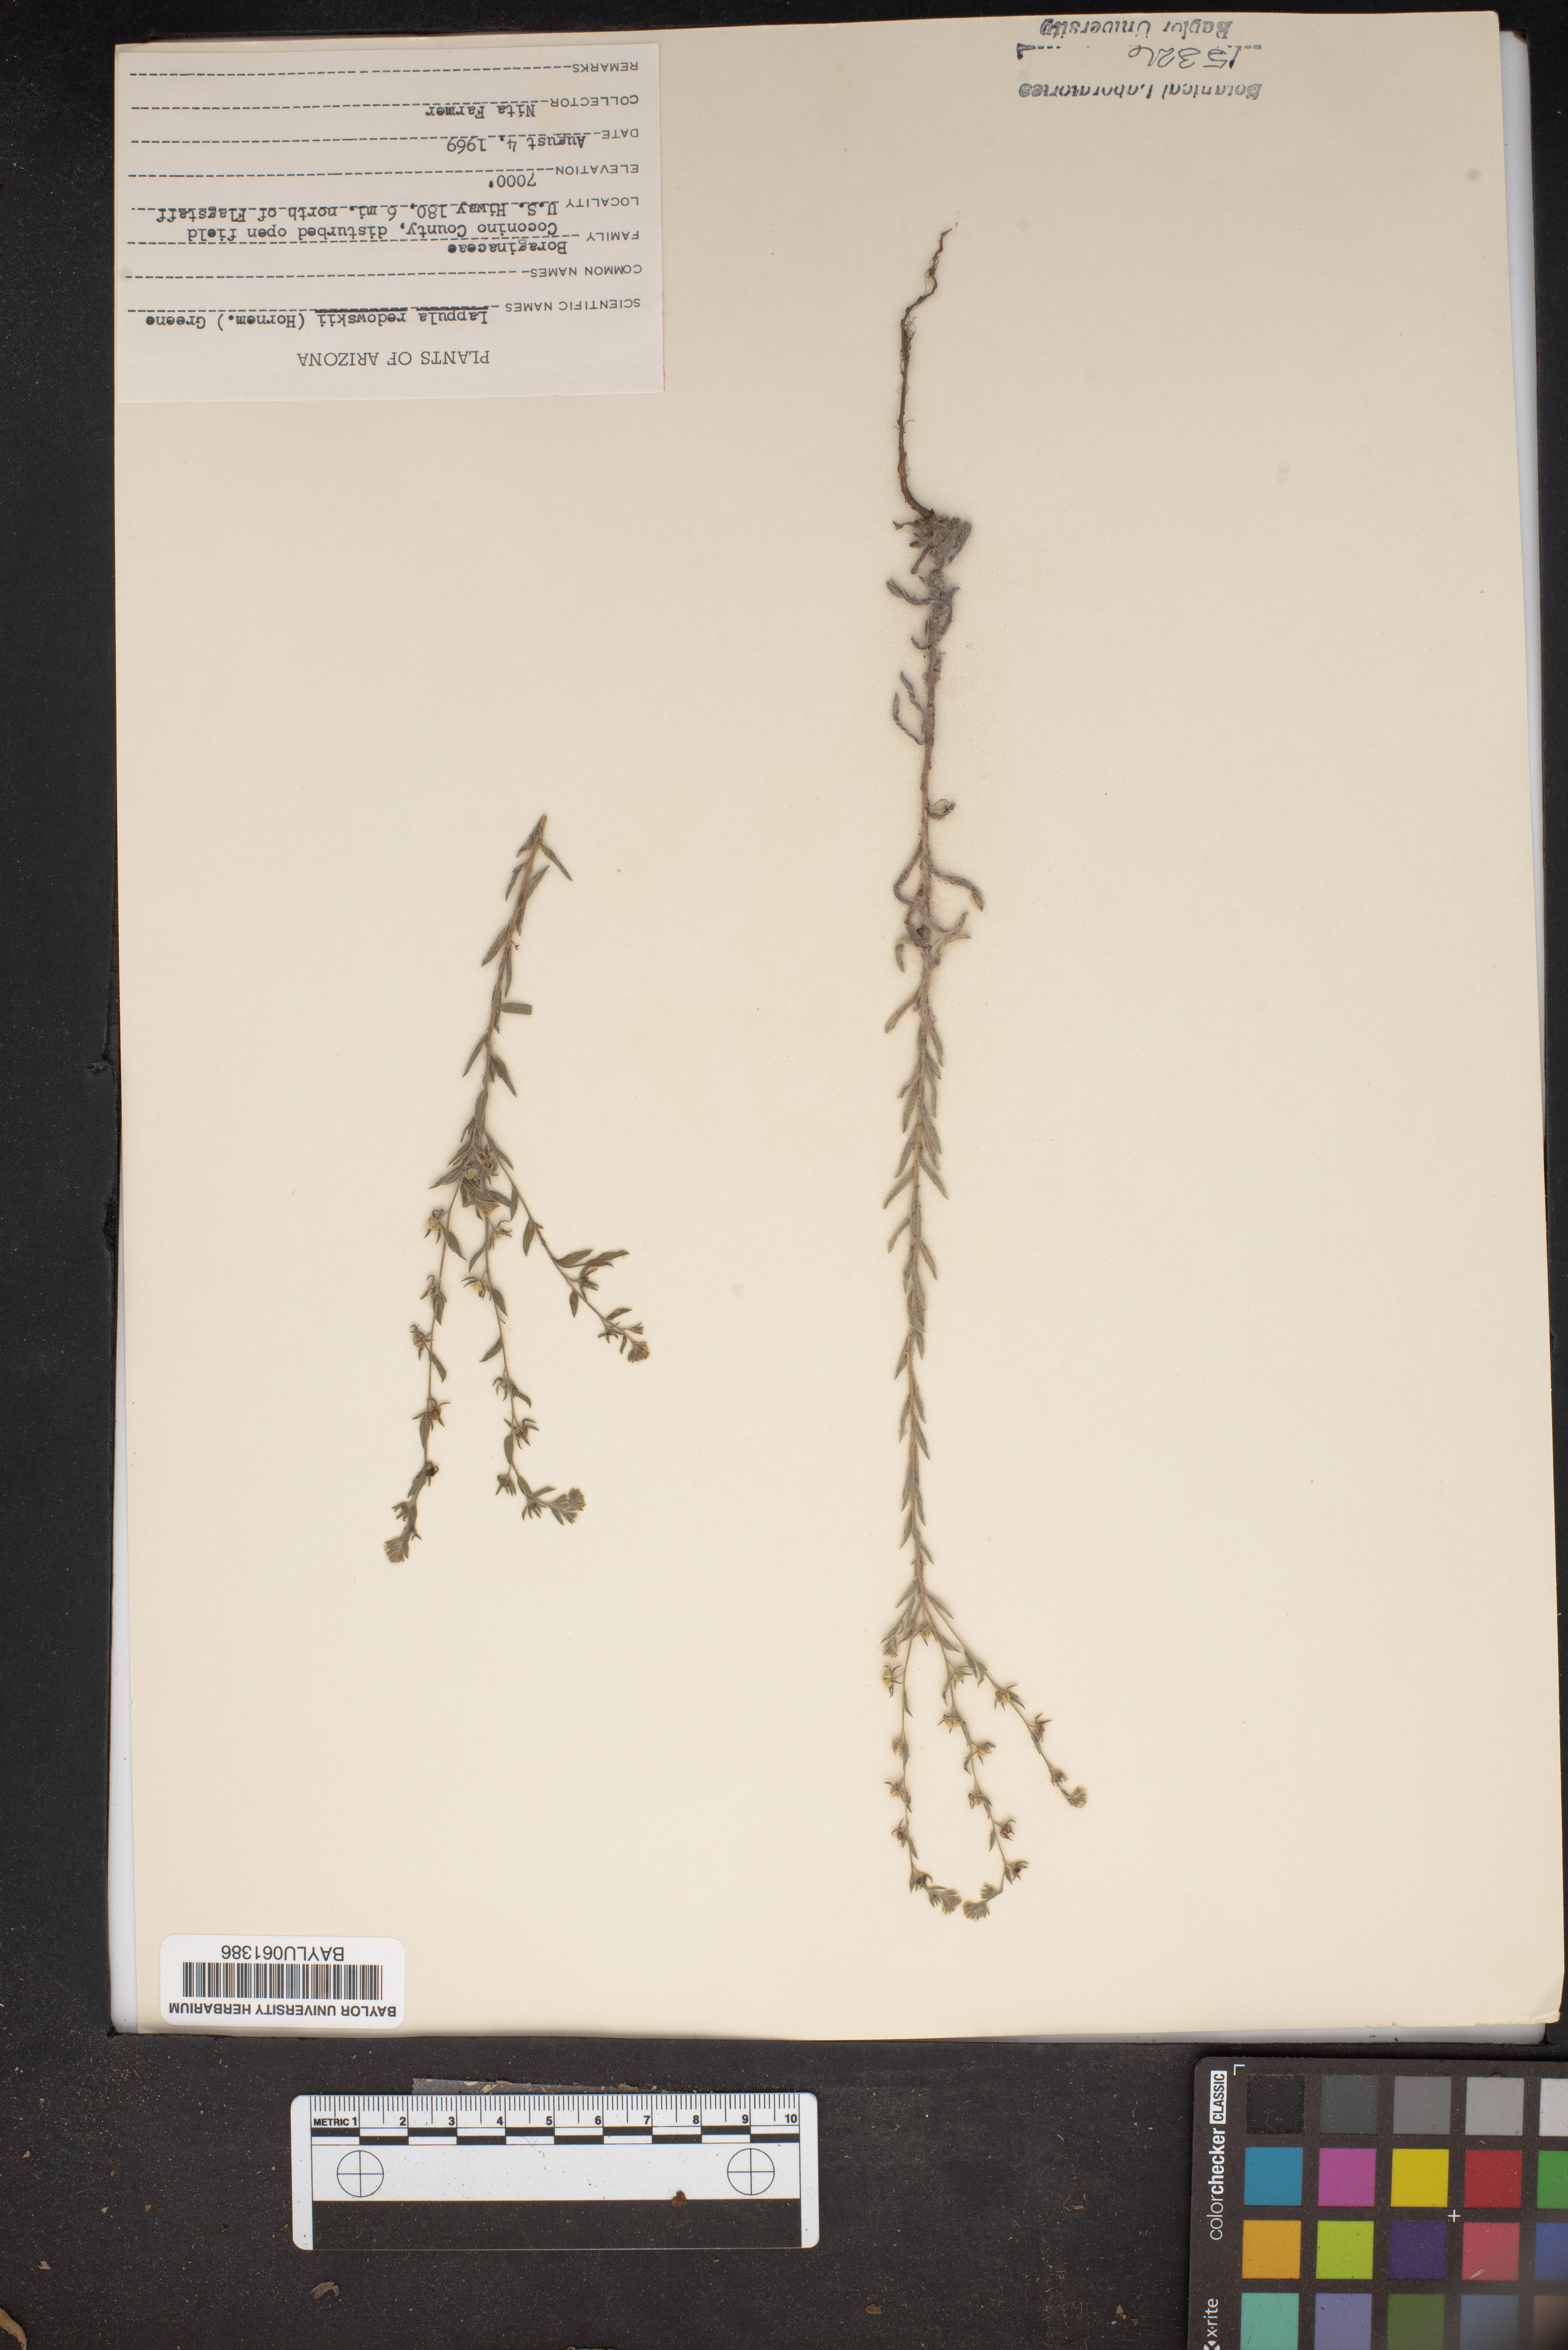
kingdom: Plantae
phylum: Tracheophyta
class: Magnoliopsida
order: Boraginales
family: Boraginaceae
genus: Lappula
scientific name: Lappula redowskii
